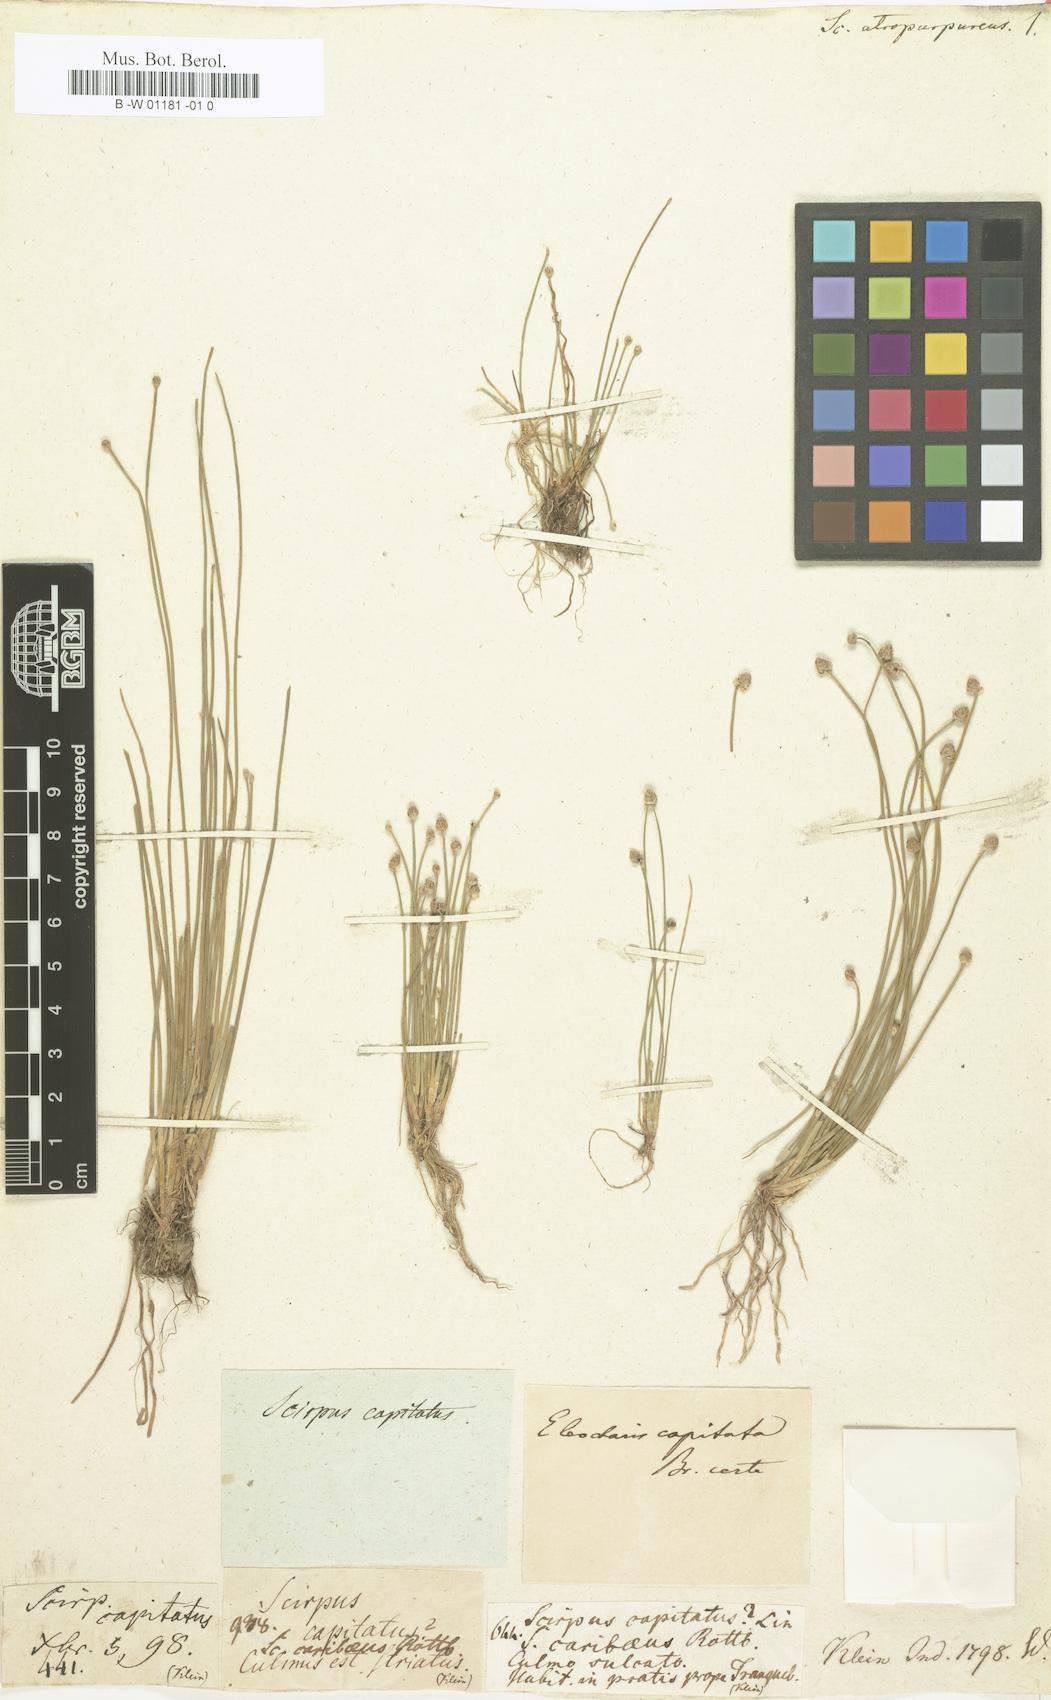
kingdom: Plantae
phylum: Tracheophyta
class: Liliopsida
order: Poales
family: Cyperaceae
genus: Scirpus
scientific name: Scirpus atropurpureus
